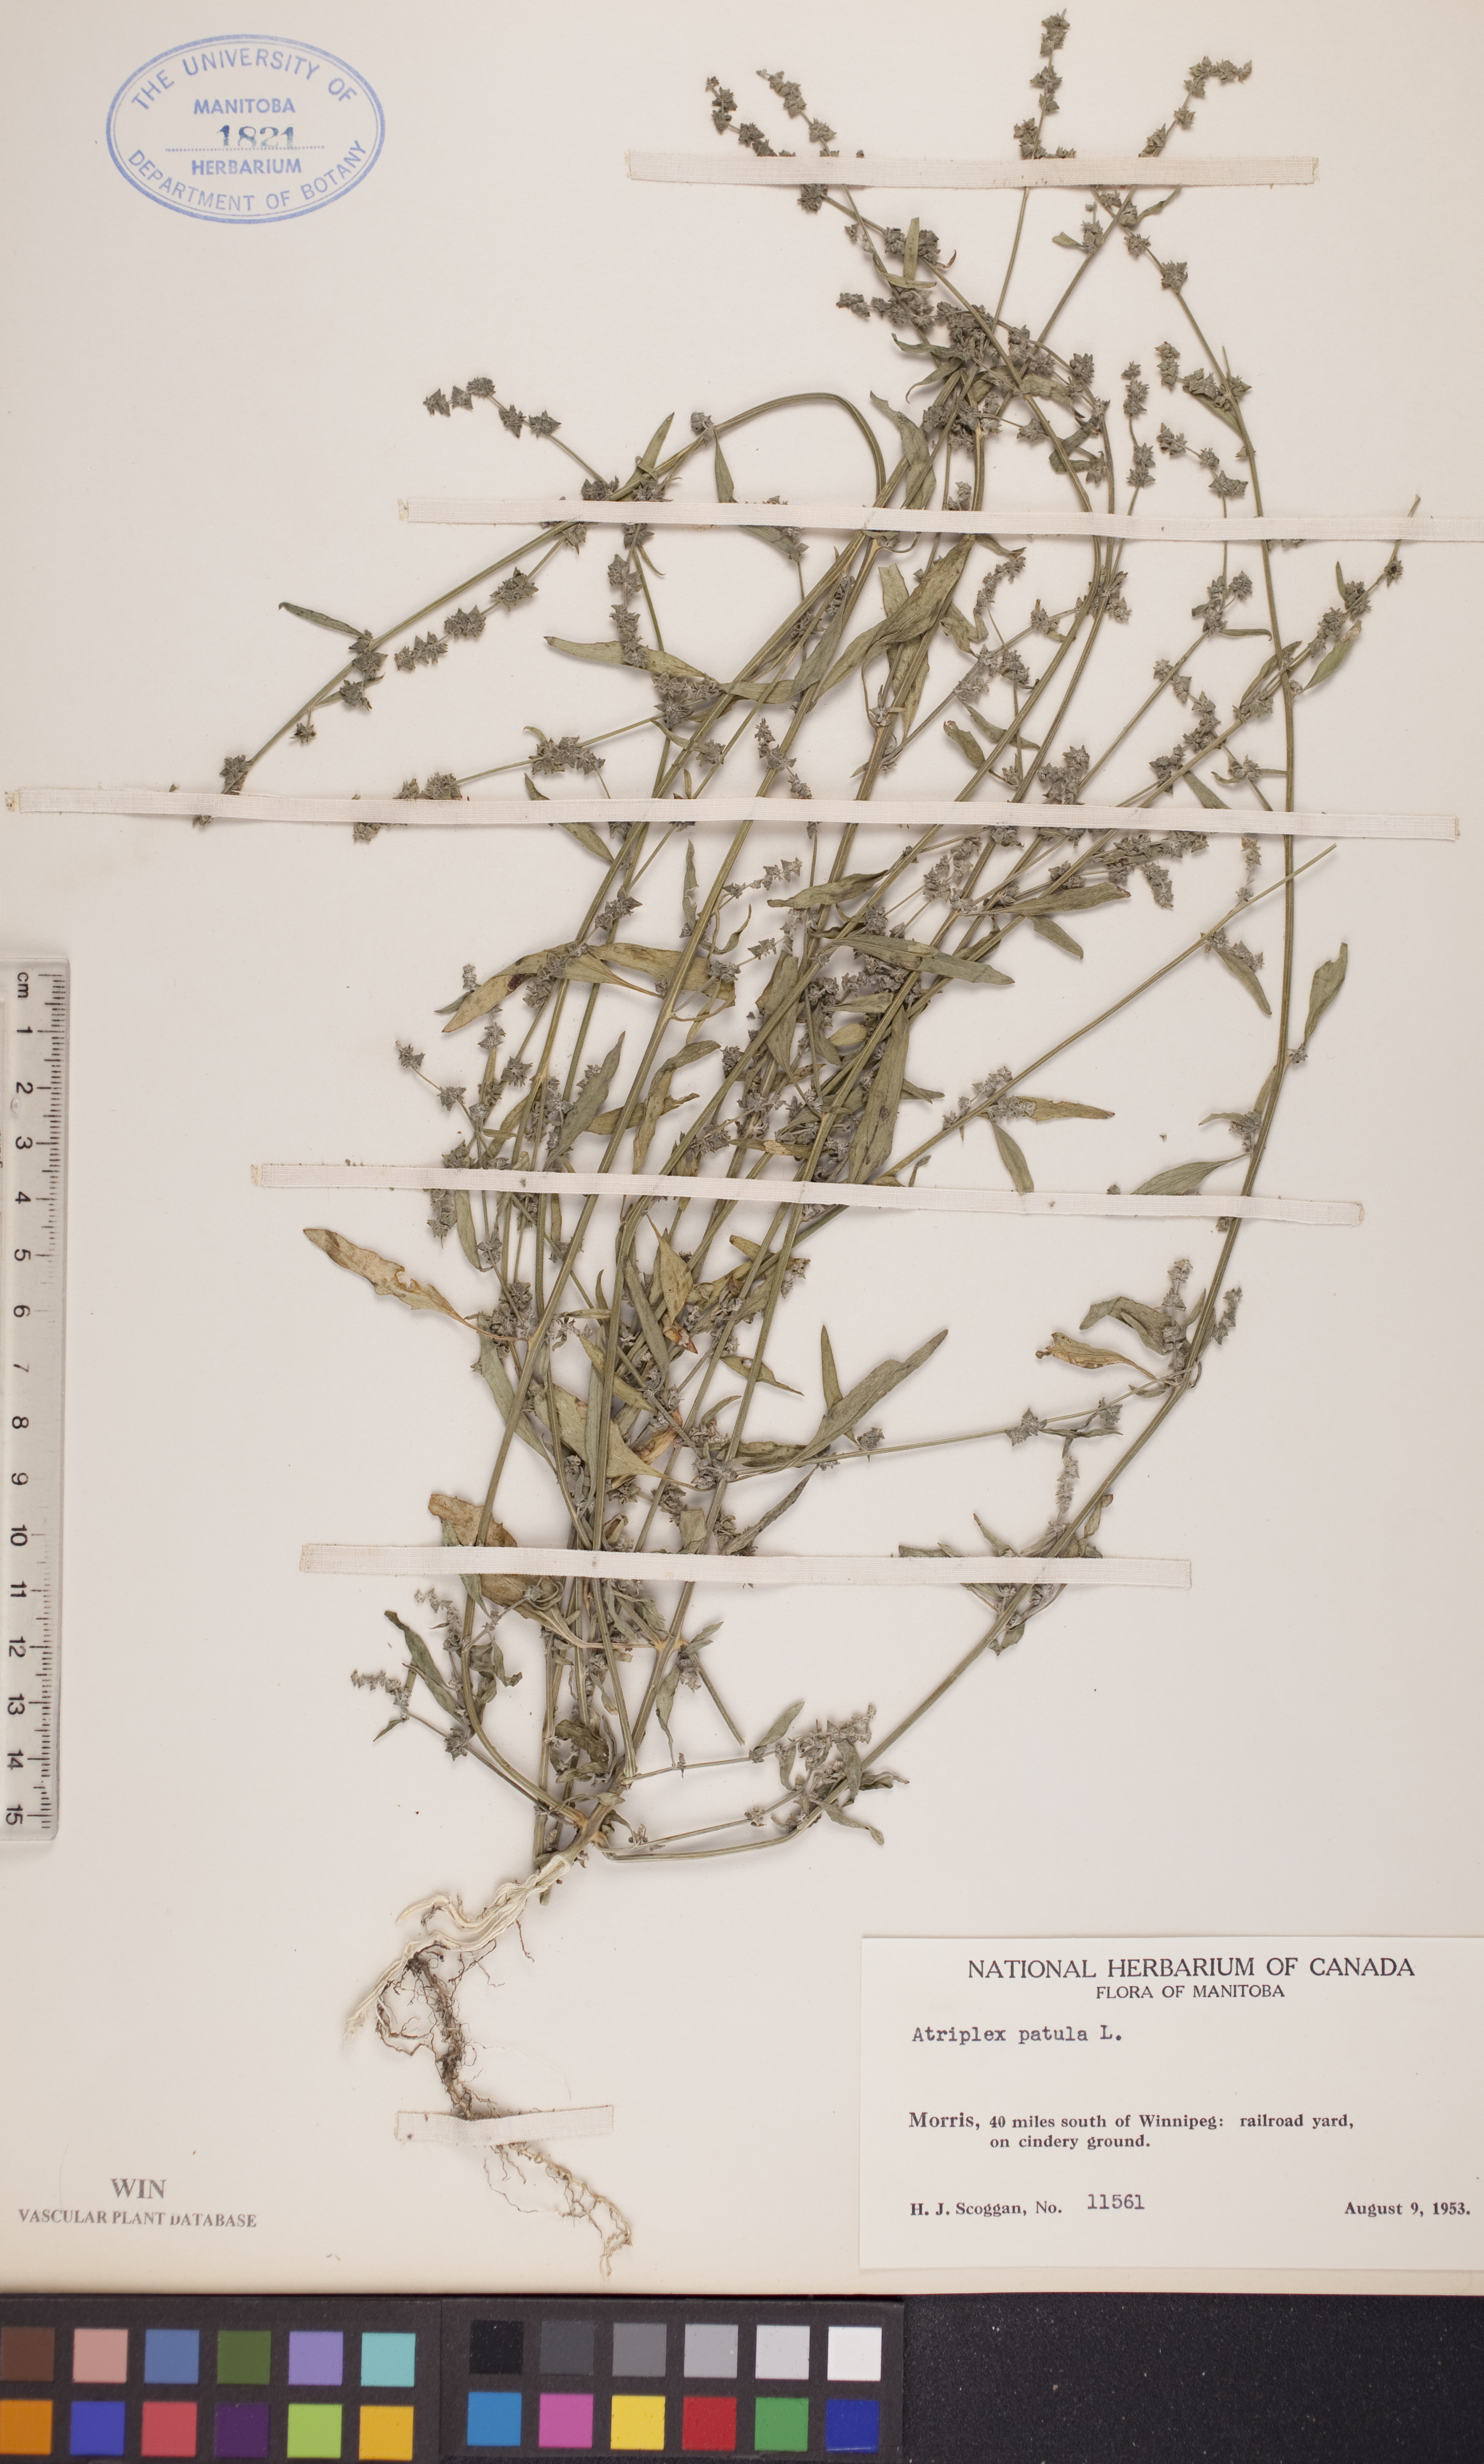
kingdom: Plantae
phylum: Tracheophyta
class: Magnoliopsida
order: Caryophyllales
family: Amaranthaceae
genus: Atriplex
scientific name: Atriplex patula
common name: Common orache
